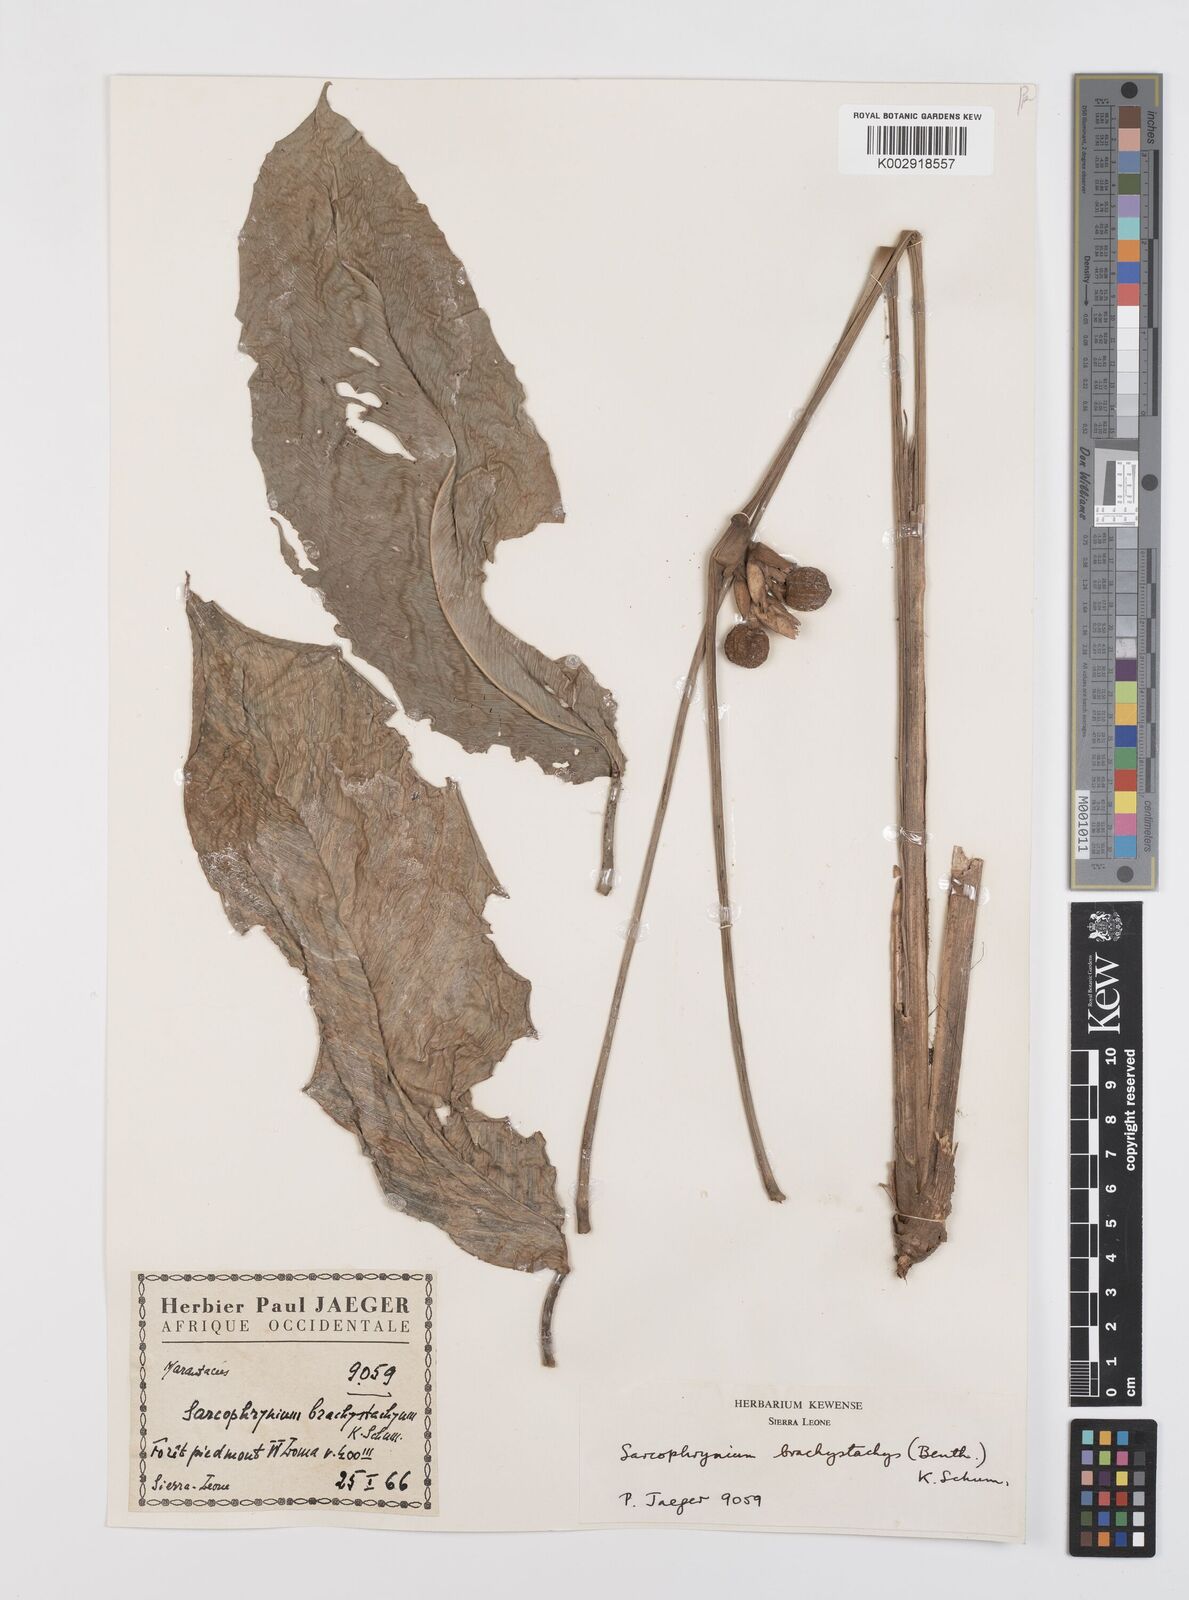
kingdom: Plantae
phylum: Tracheophyta
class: Liliopsida
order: Zingiberales
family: Marantaceae
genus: Sarcophrynium
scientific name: Sarcophrynium brachystachyum
